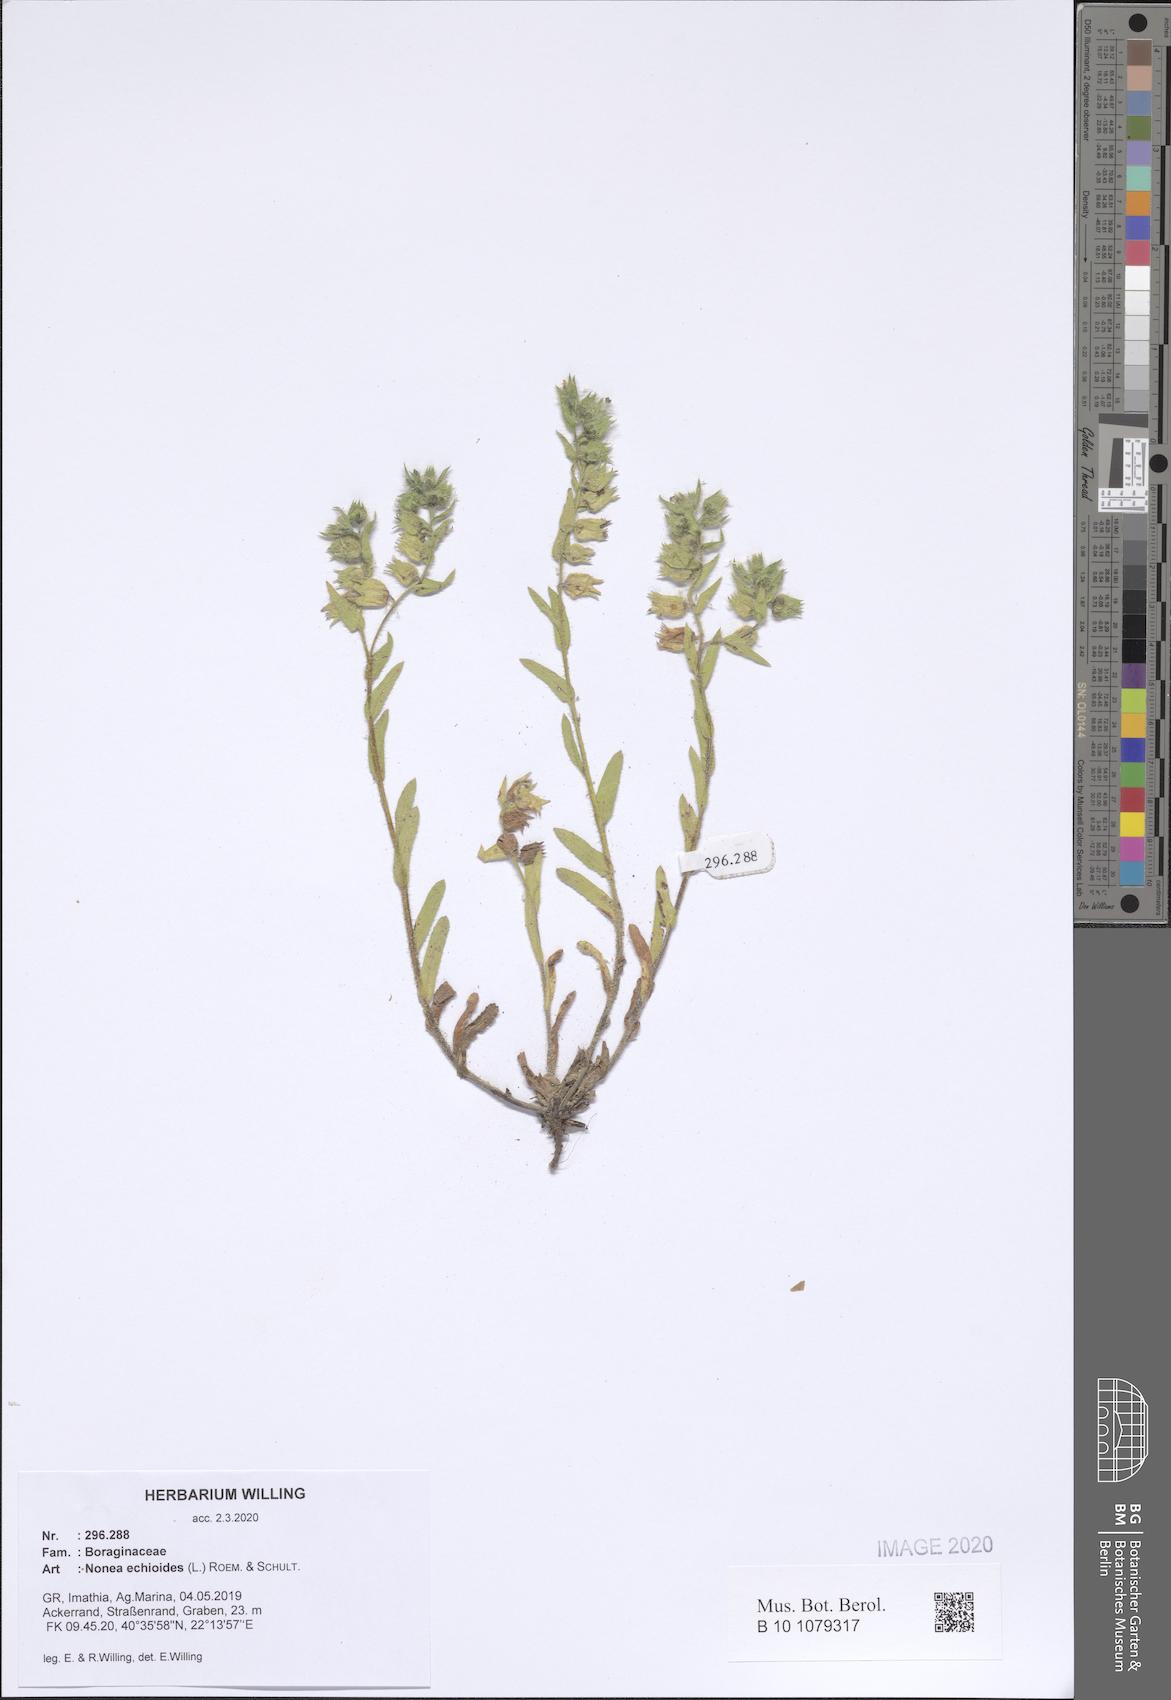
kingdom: Plantae
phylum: Tracheophyta
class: Magnoliopsida
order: Boraginales
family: Boraginaceae
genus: Nonea
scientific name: Nonea echioides
